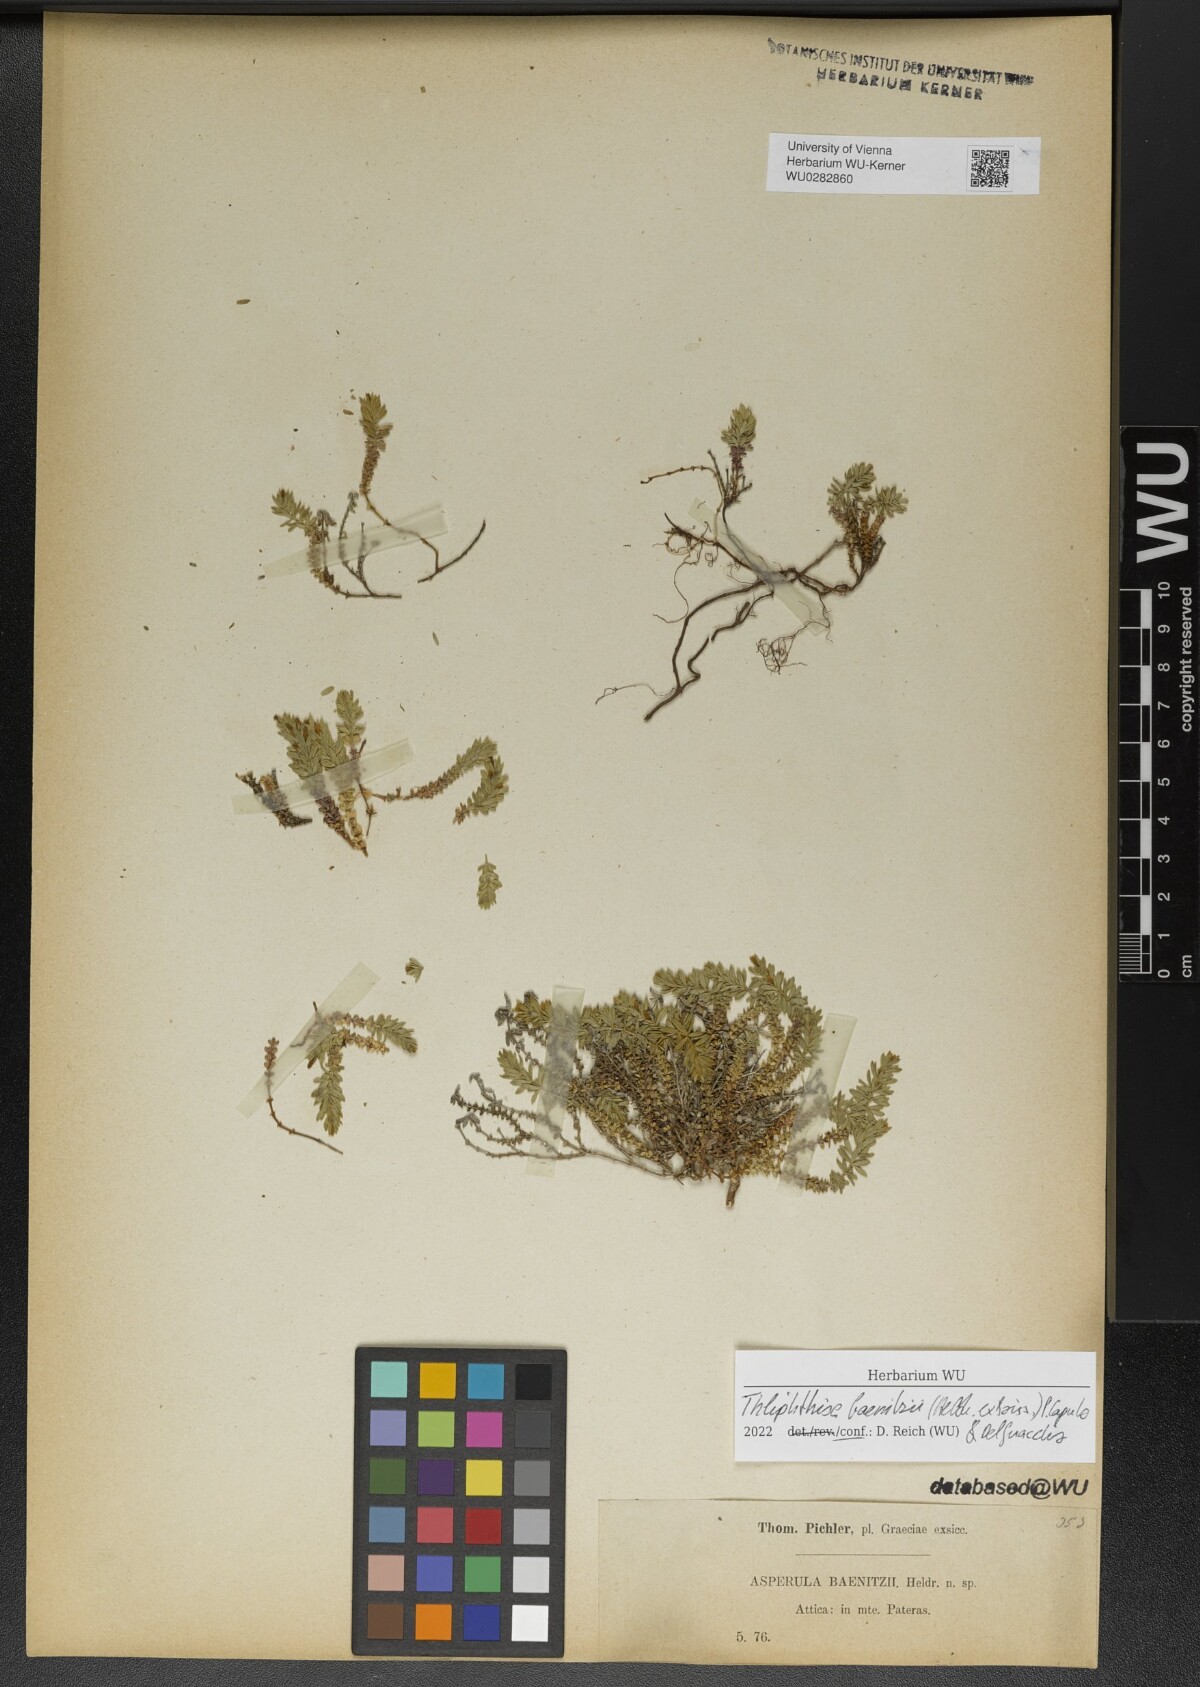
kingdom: Plantae
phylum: Tracheophyta
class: Magnoliopsida
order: Gentianales
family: Rubiaceae
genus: Thliphthisa
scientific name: Thliphthisa baenitzii
